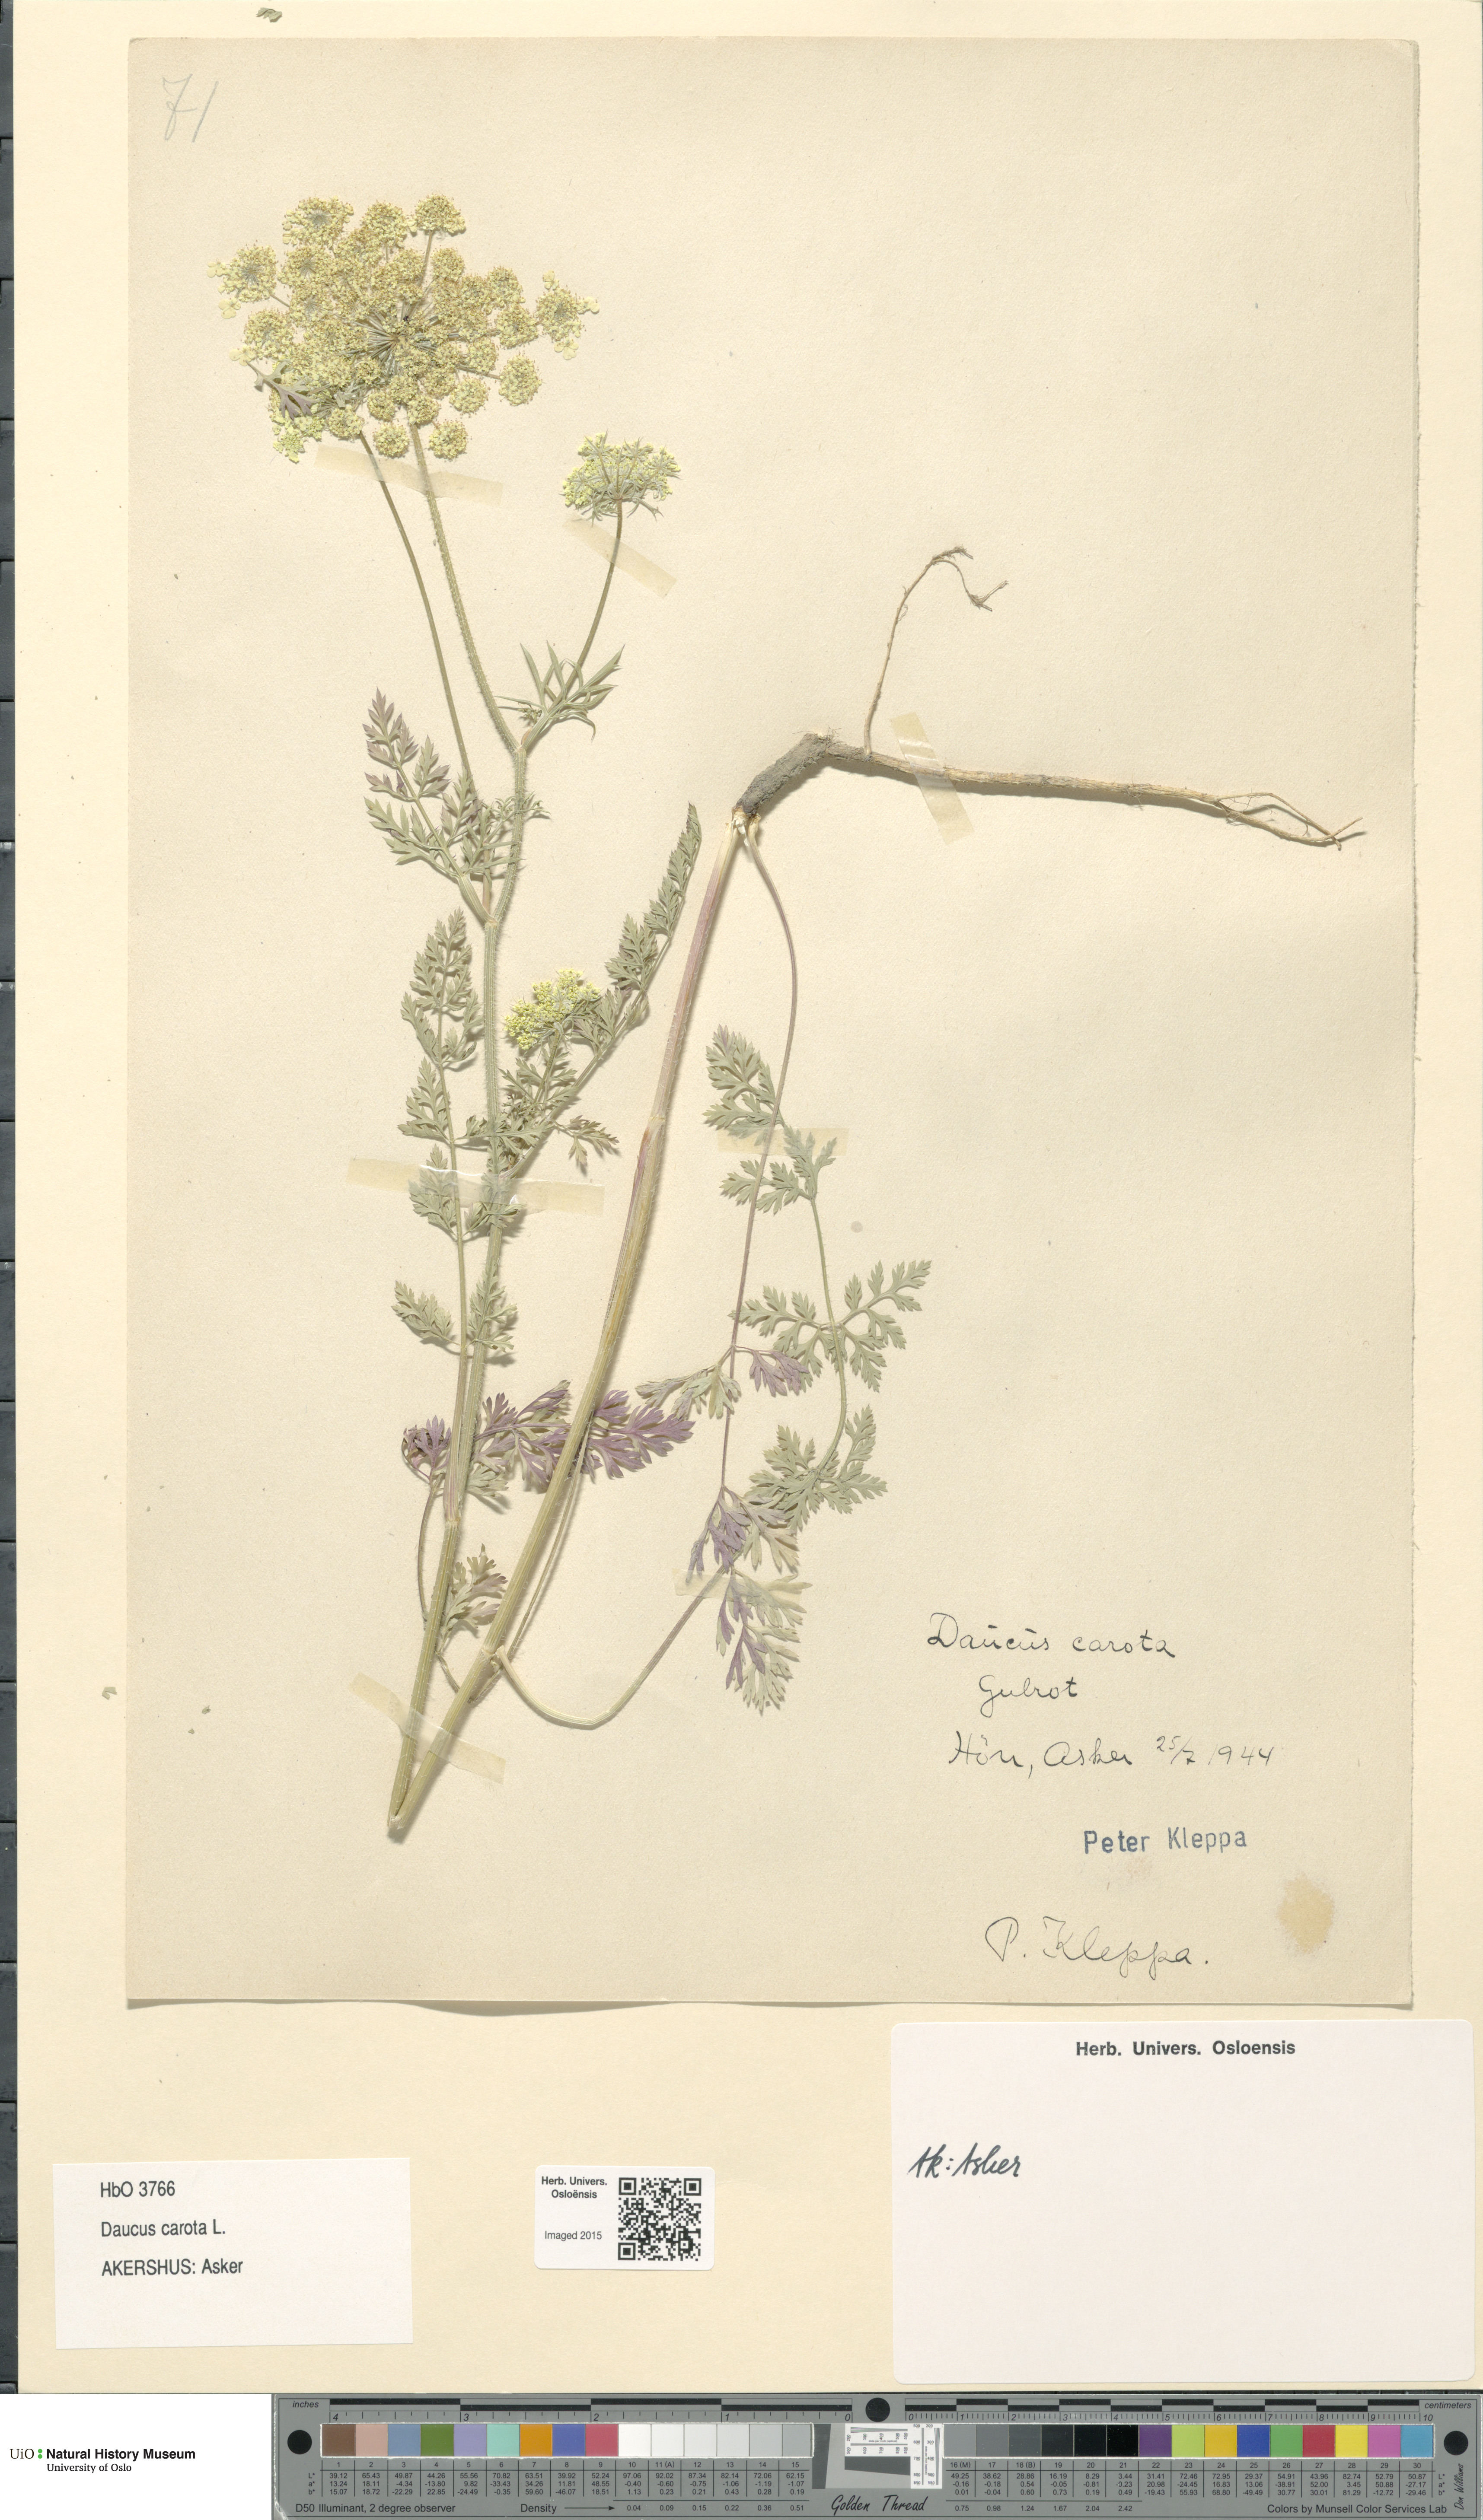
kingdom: Plantae
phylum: Tracheophyta
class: Magnoliopsida
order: Apiales
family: Apiaceae
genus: Daucus
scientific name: Daucus carota
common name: Wild carrot
